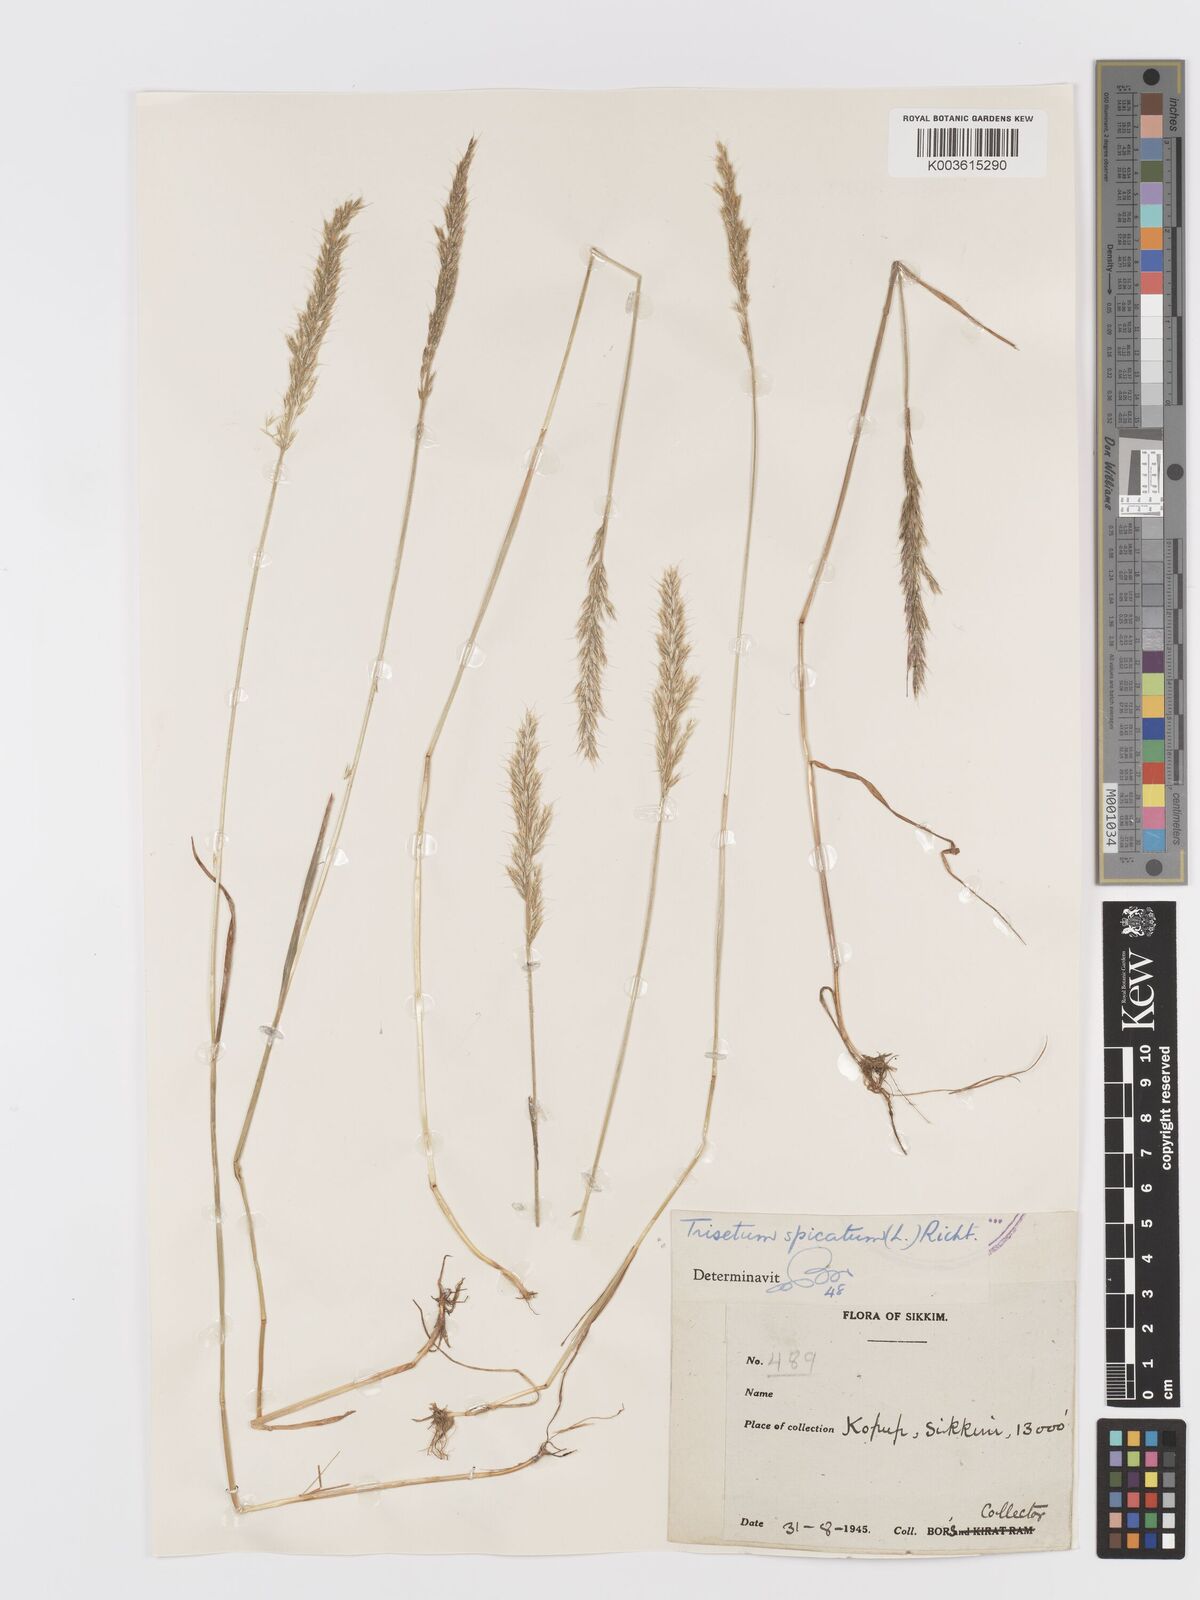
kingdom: Plantae
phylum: Tracheophyta
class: Liliopsida
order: Poales
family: Poaceae
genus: Koeleria
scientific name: Koeleria spicata
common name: Mountain trisetum
